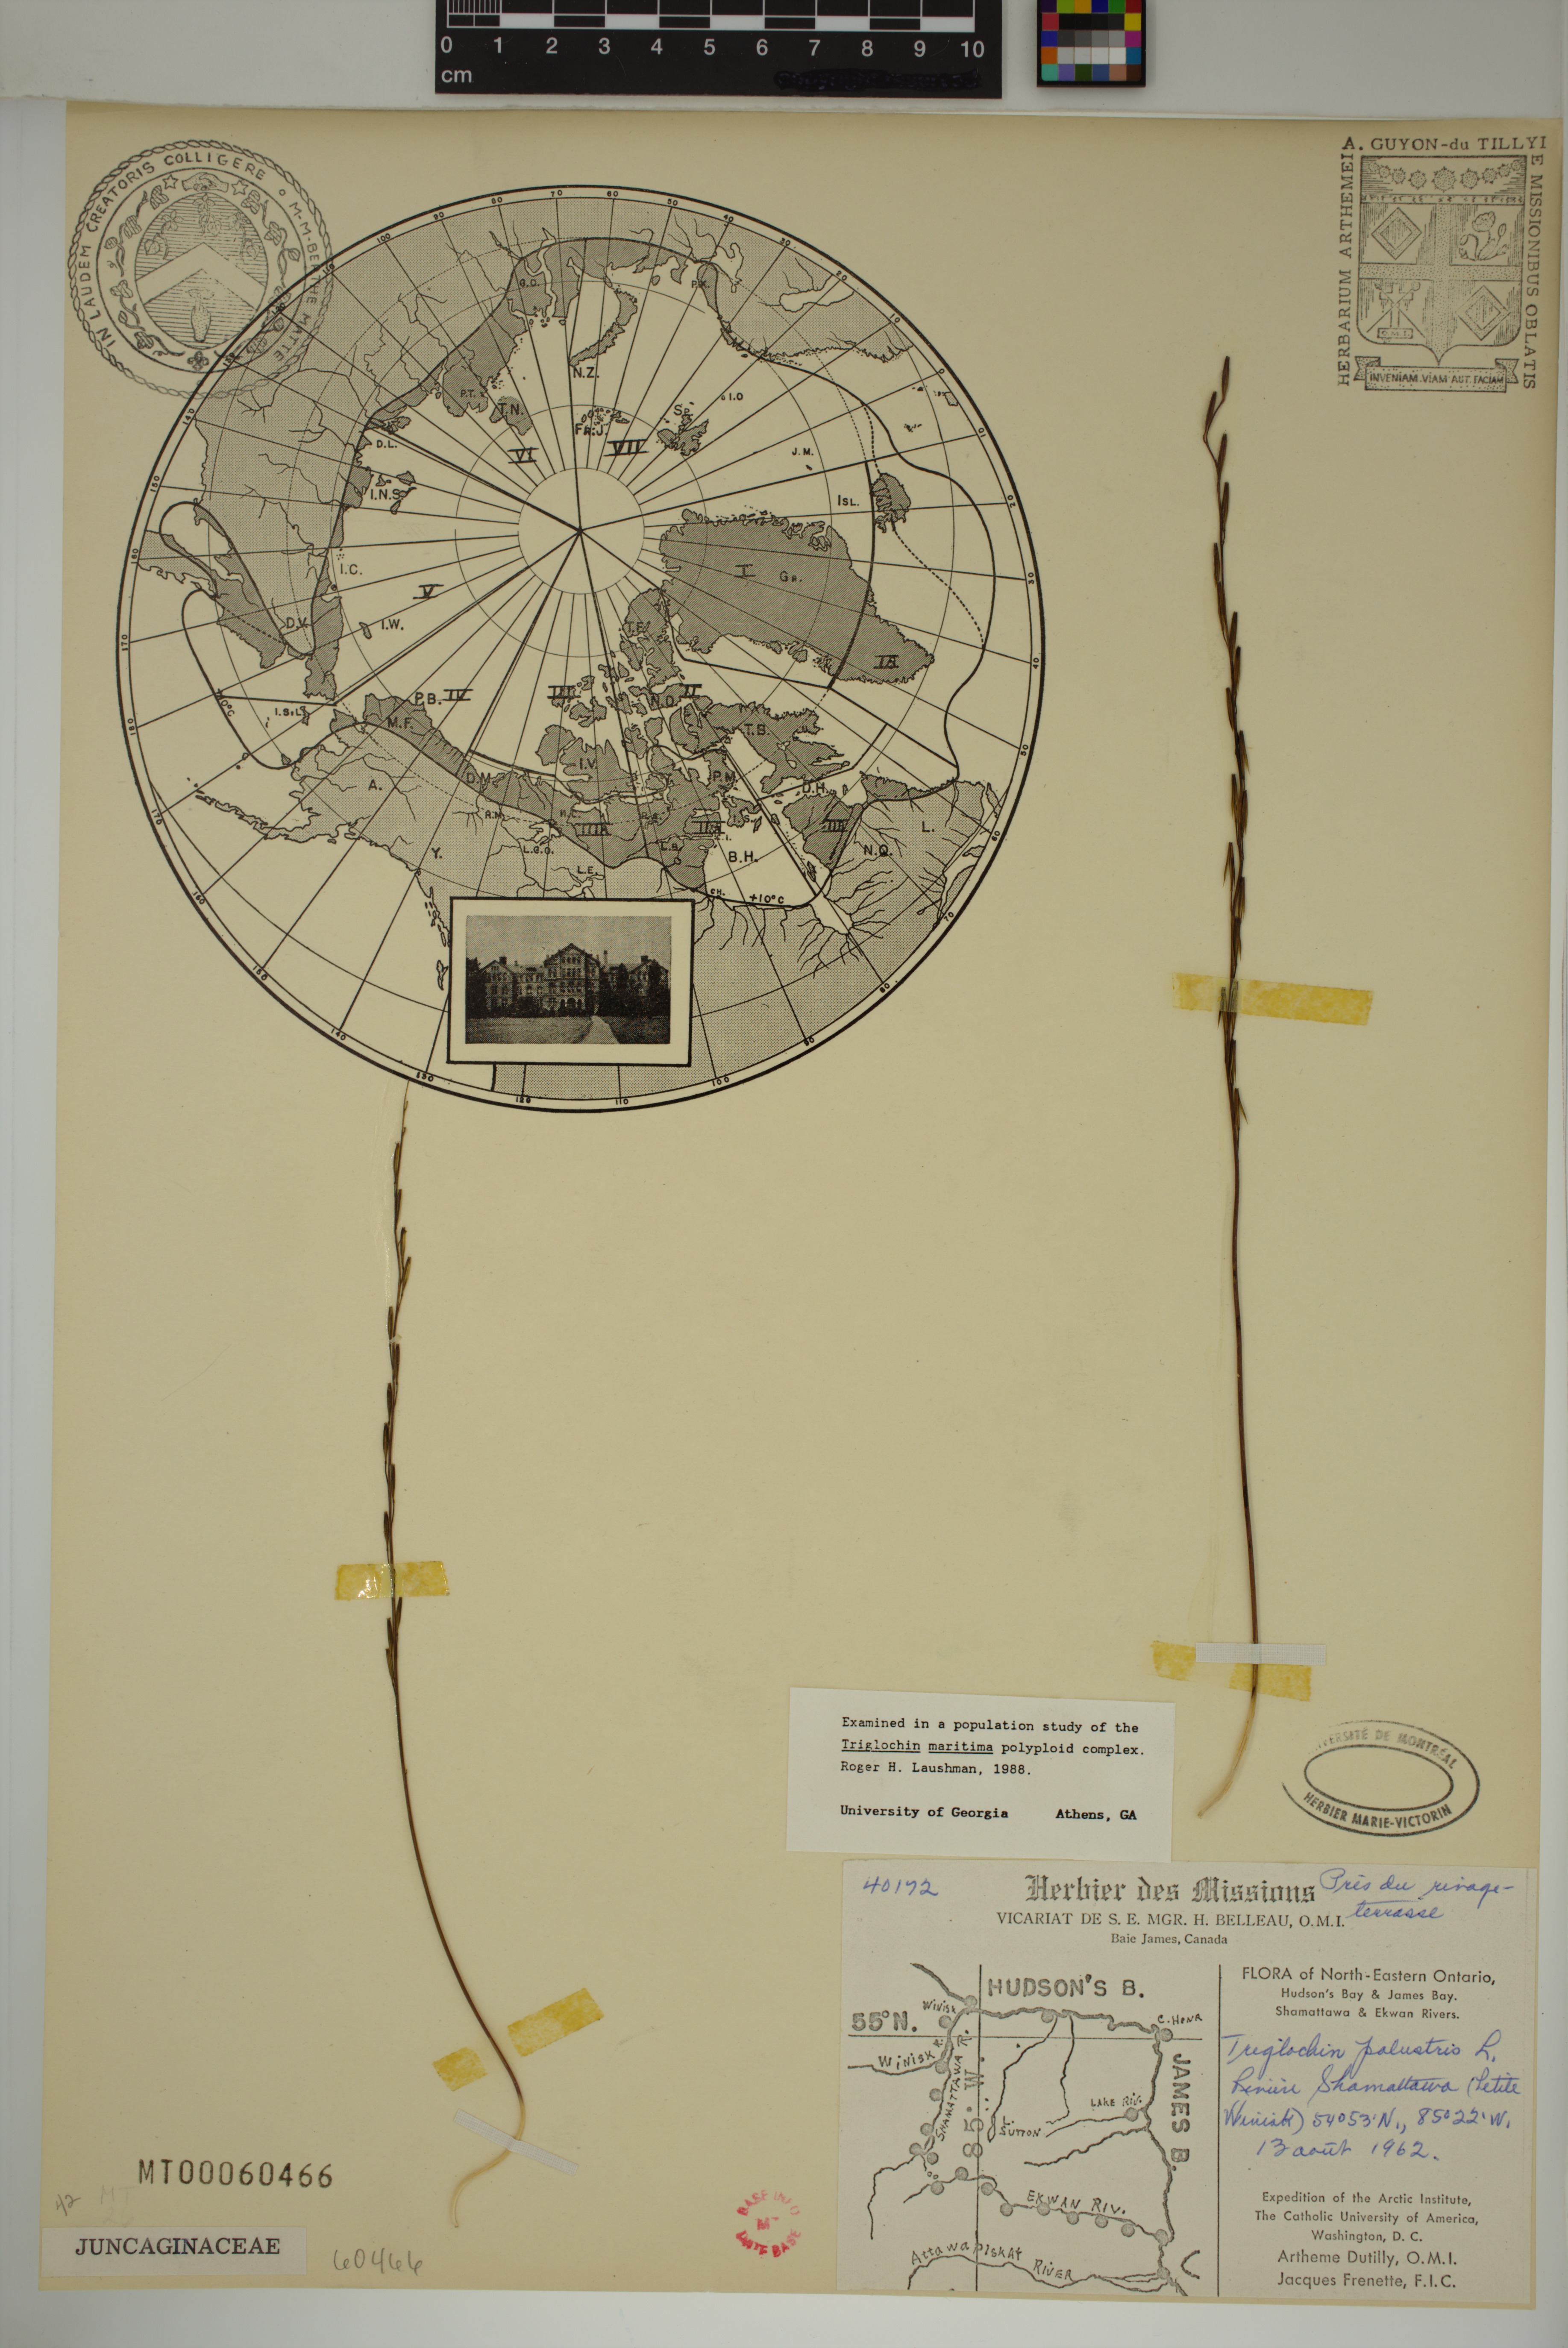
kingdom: Plantae
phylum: Tracheophyta
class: Liliopsida
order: Alismatales
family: Juncaginaceae
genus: Triglochin
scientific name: Triglochin palustris
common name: Marsh arrowgrass
